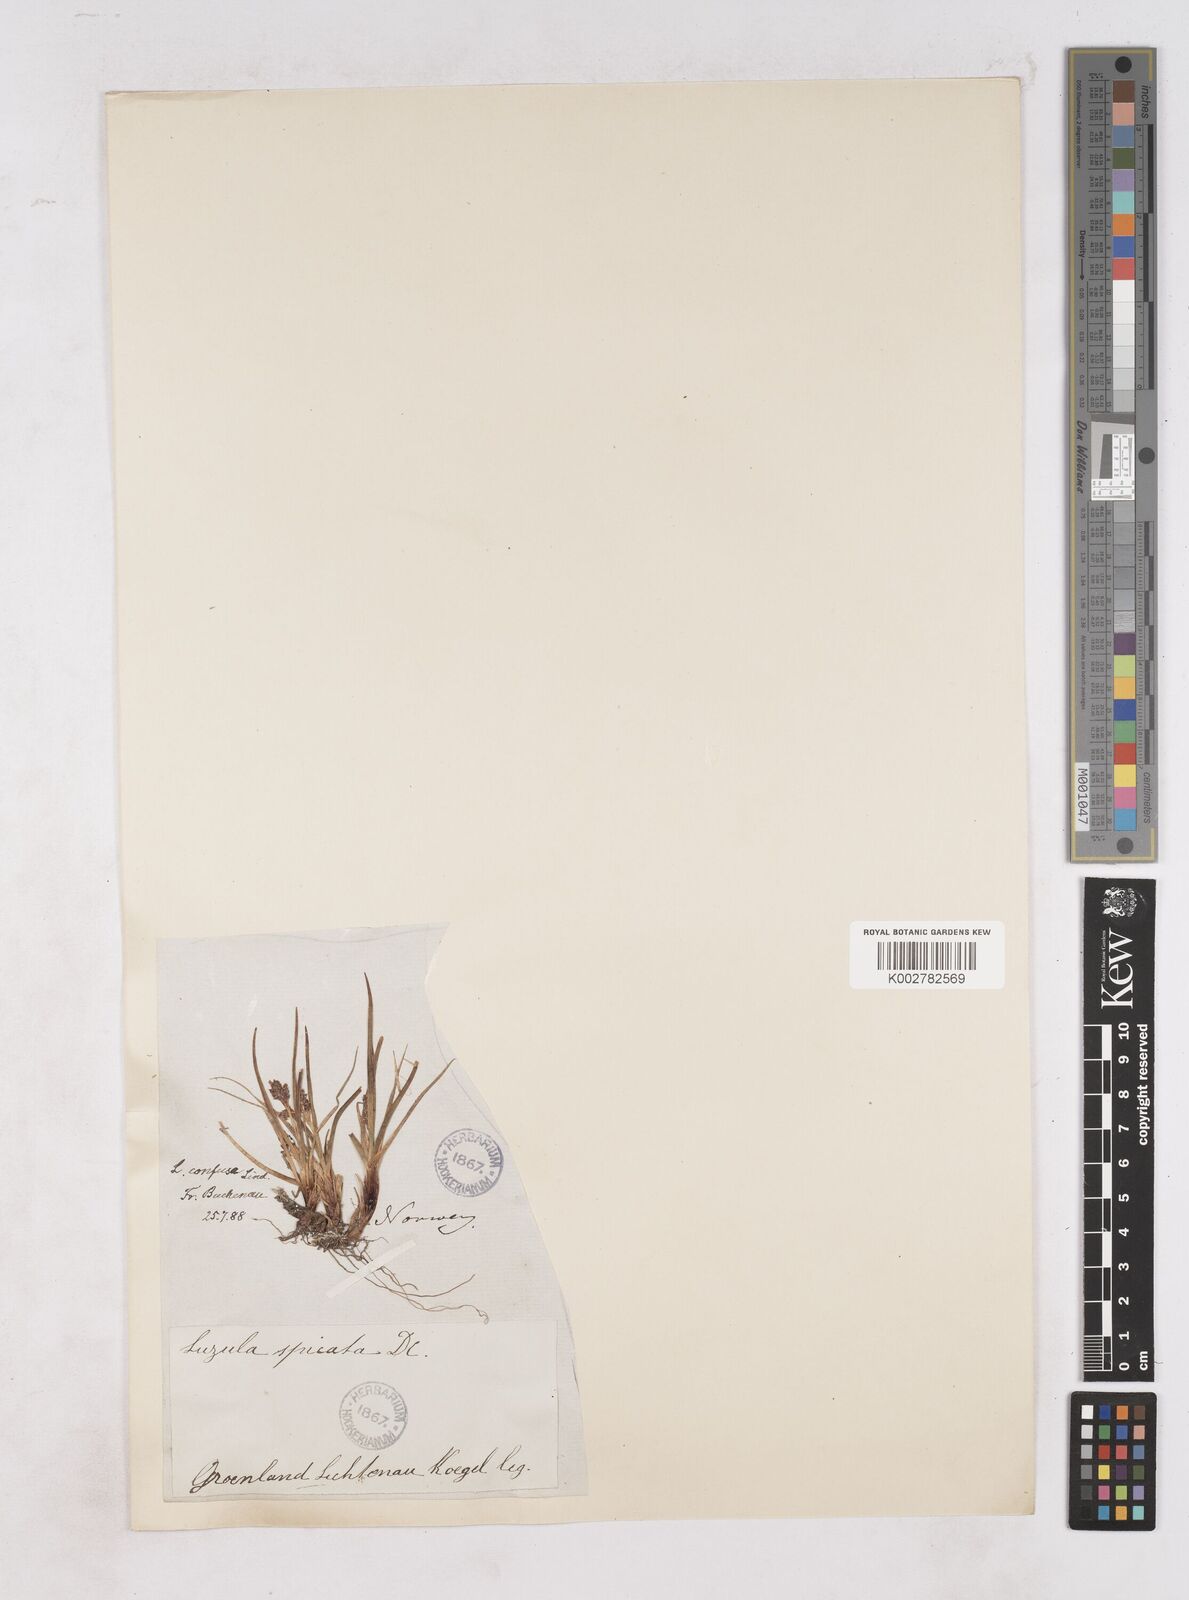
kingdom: Plantae
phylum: Tracheophyta
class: Liliopsida
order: Poales
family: Juncaceae
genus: Luzula
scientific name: Luzula confusa
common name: Northern wood rush
